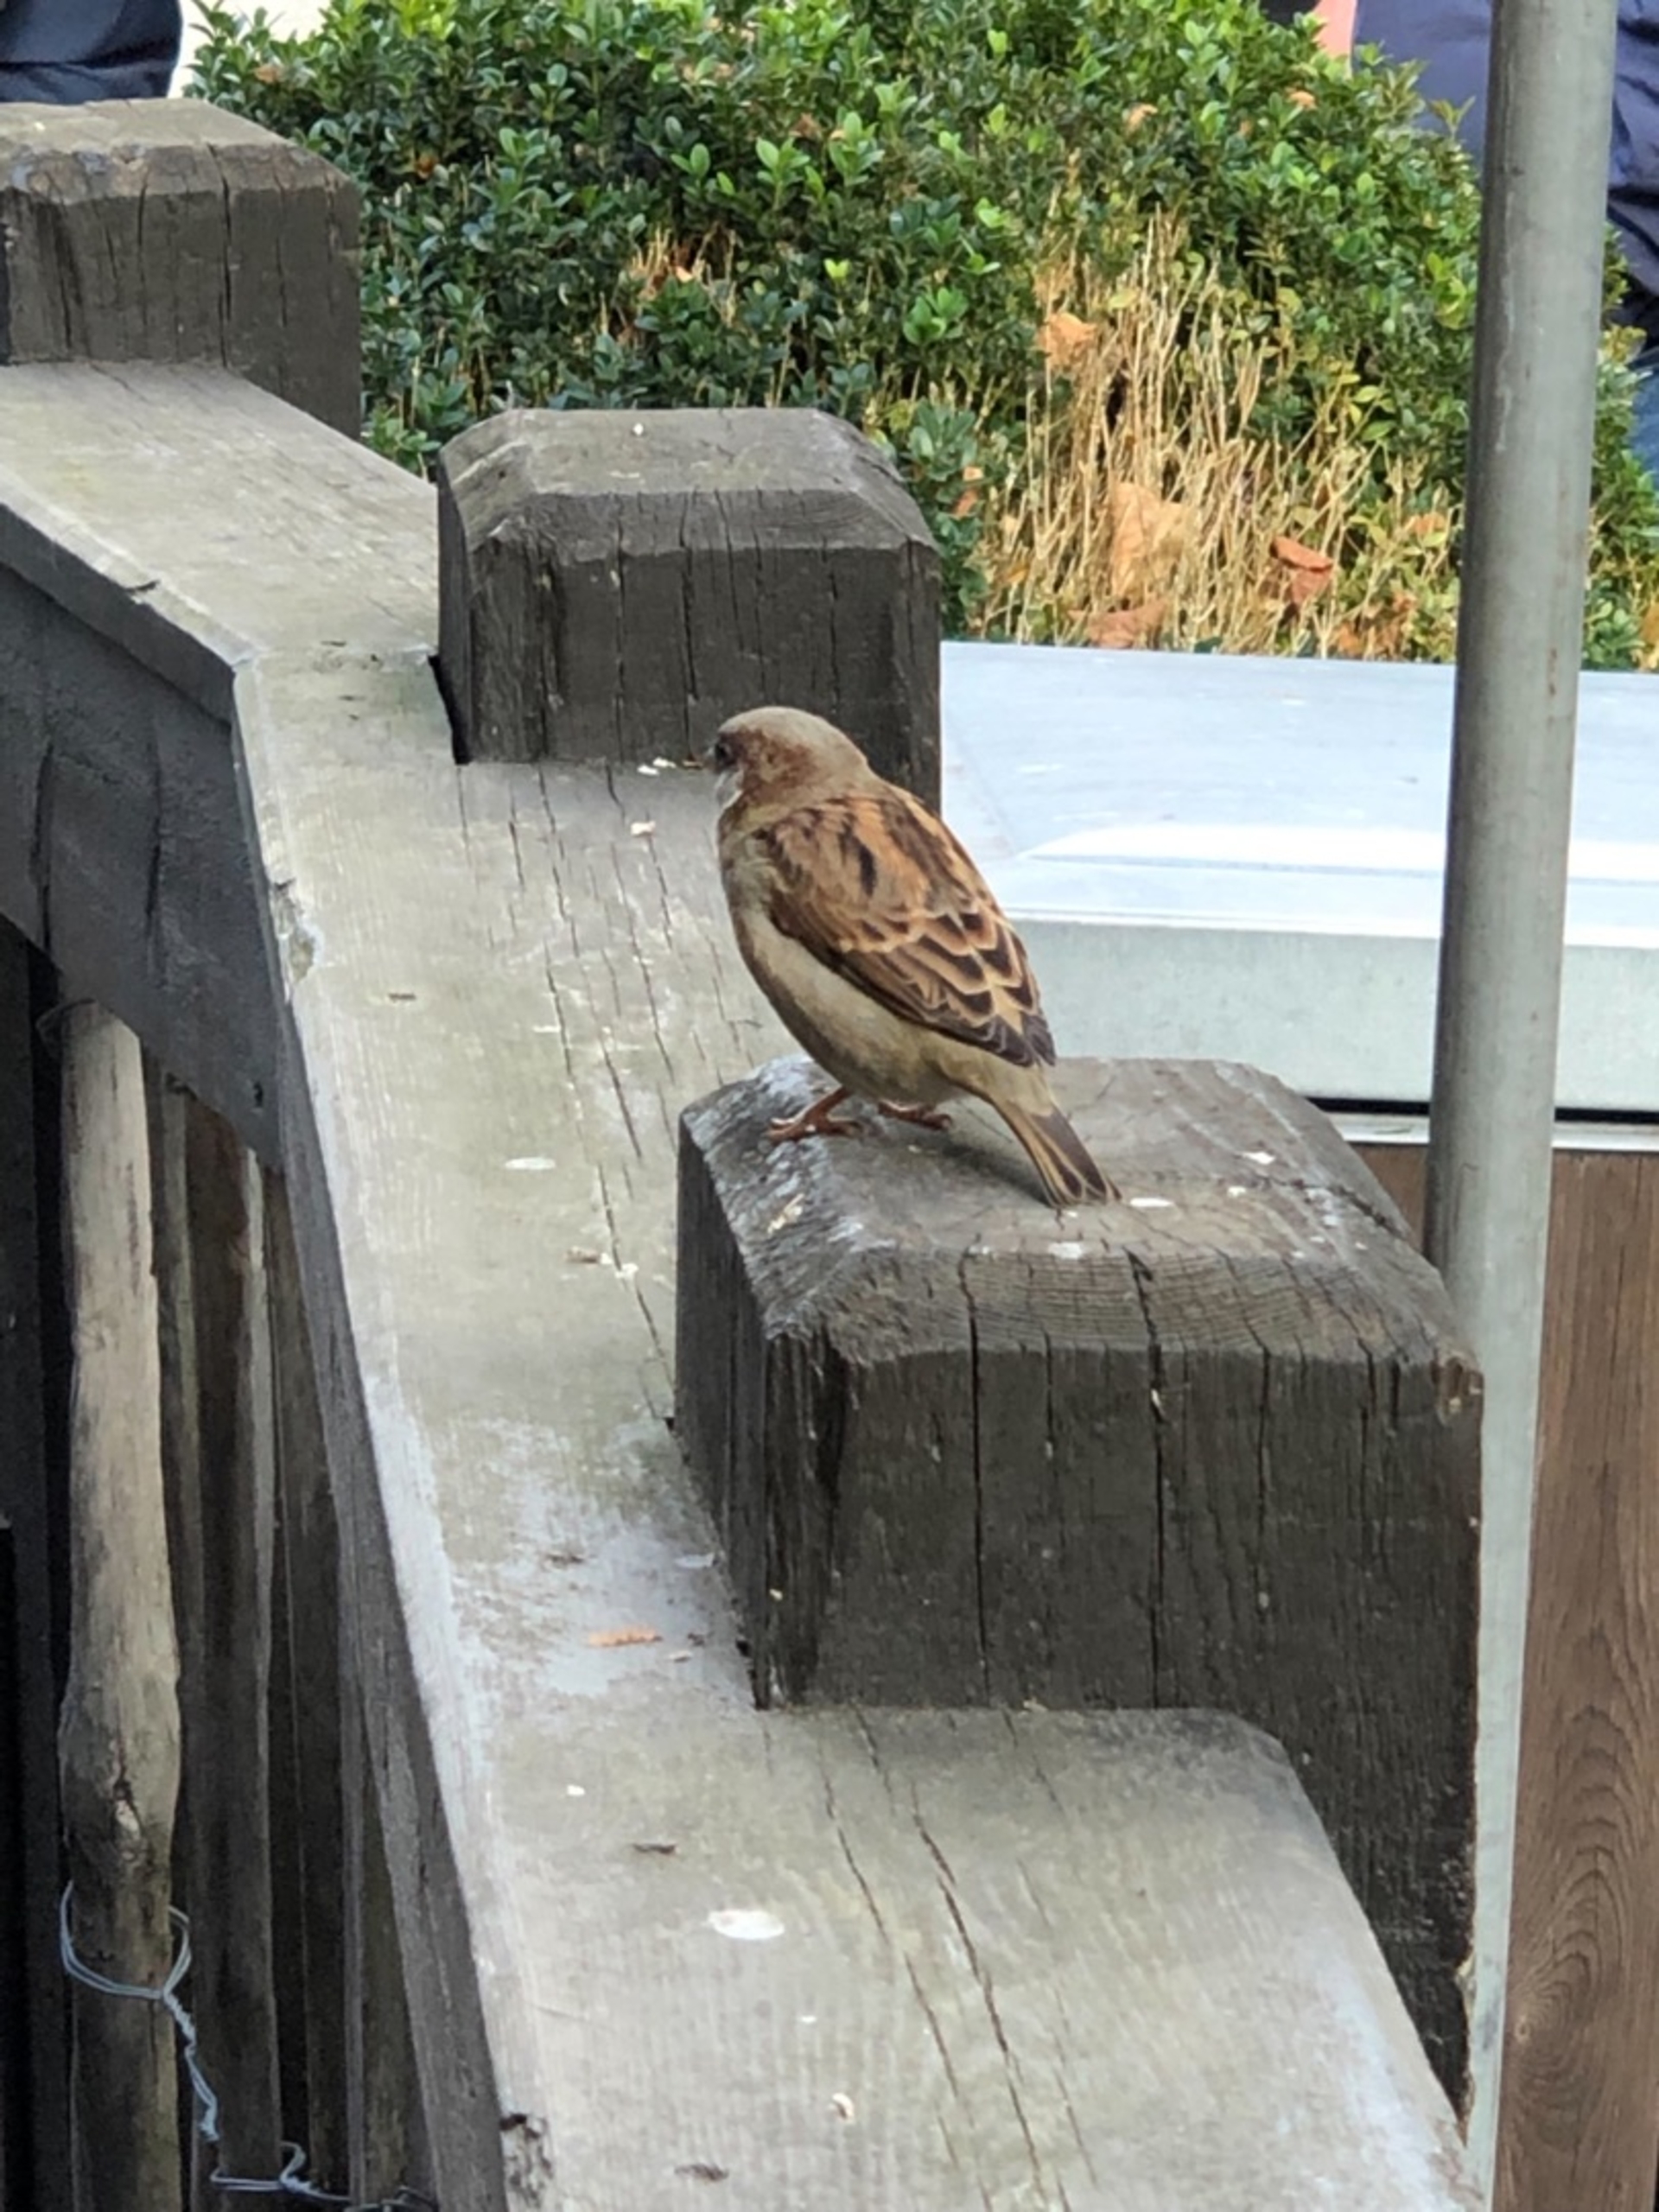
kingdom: Animalia
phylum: Chordata
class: Aves
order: Passeriformes
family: Passeridae
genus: Passer
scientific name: Passer domesticus
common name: Gråspurv
